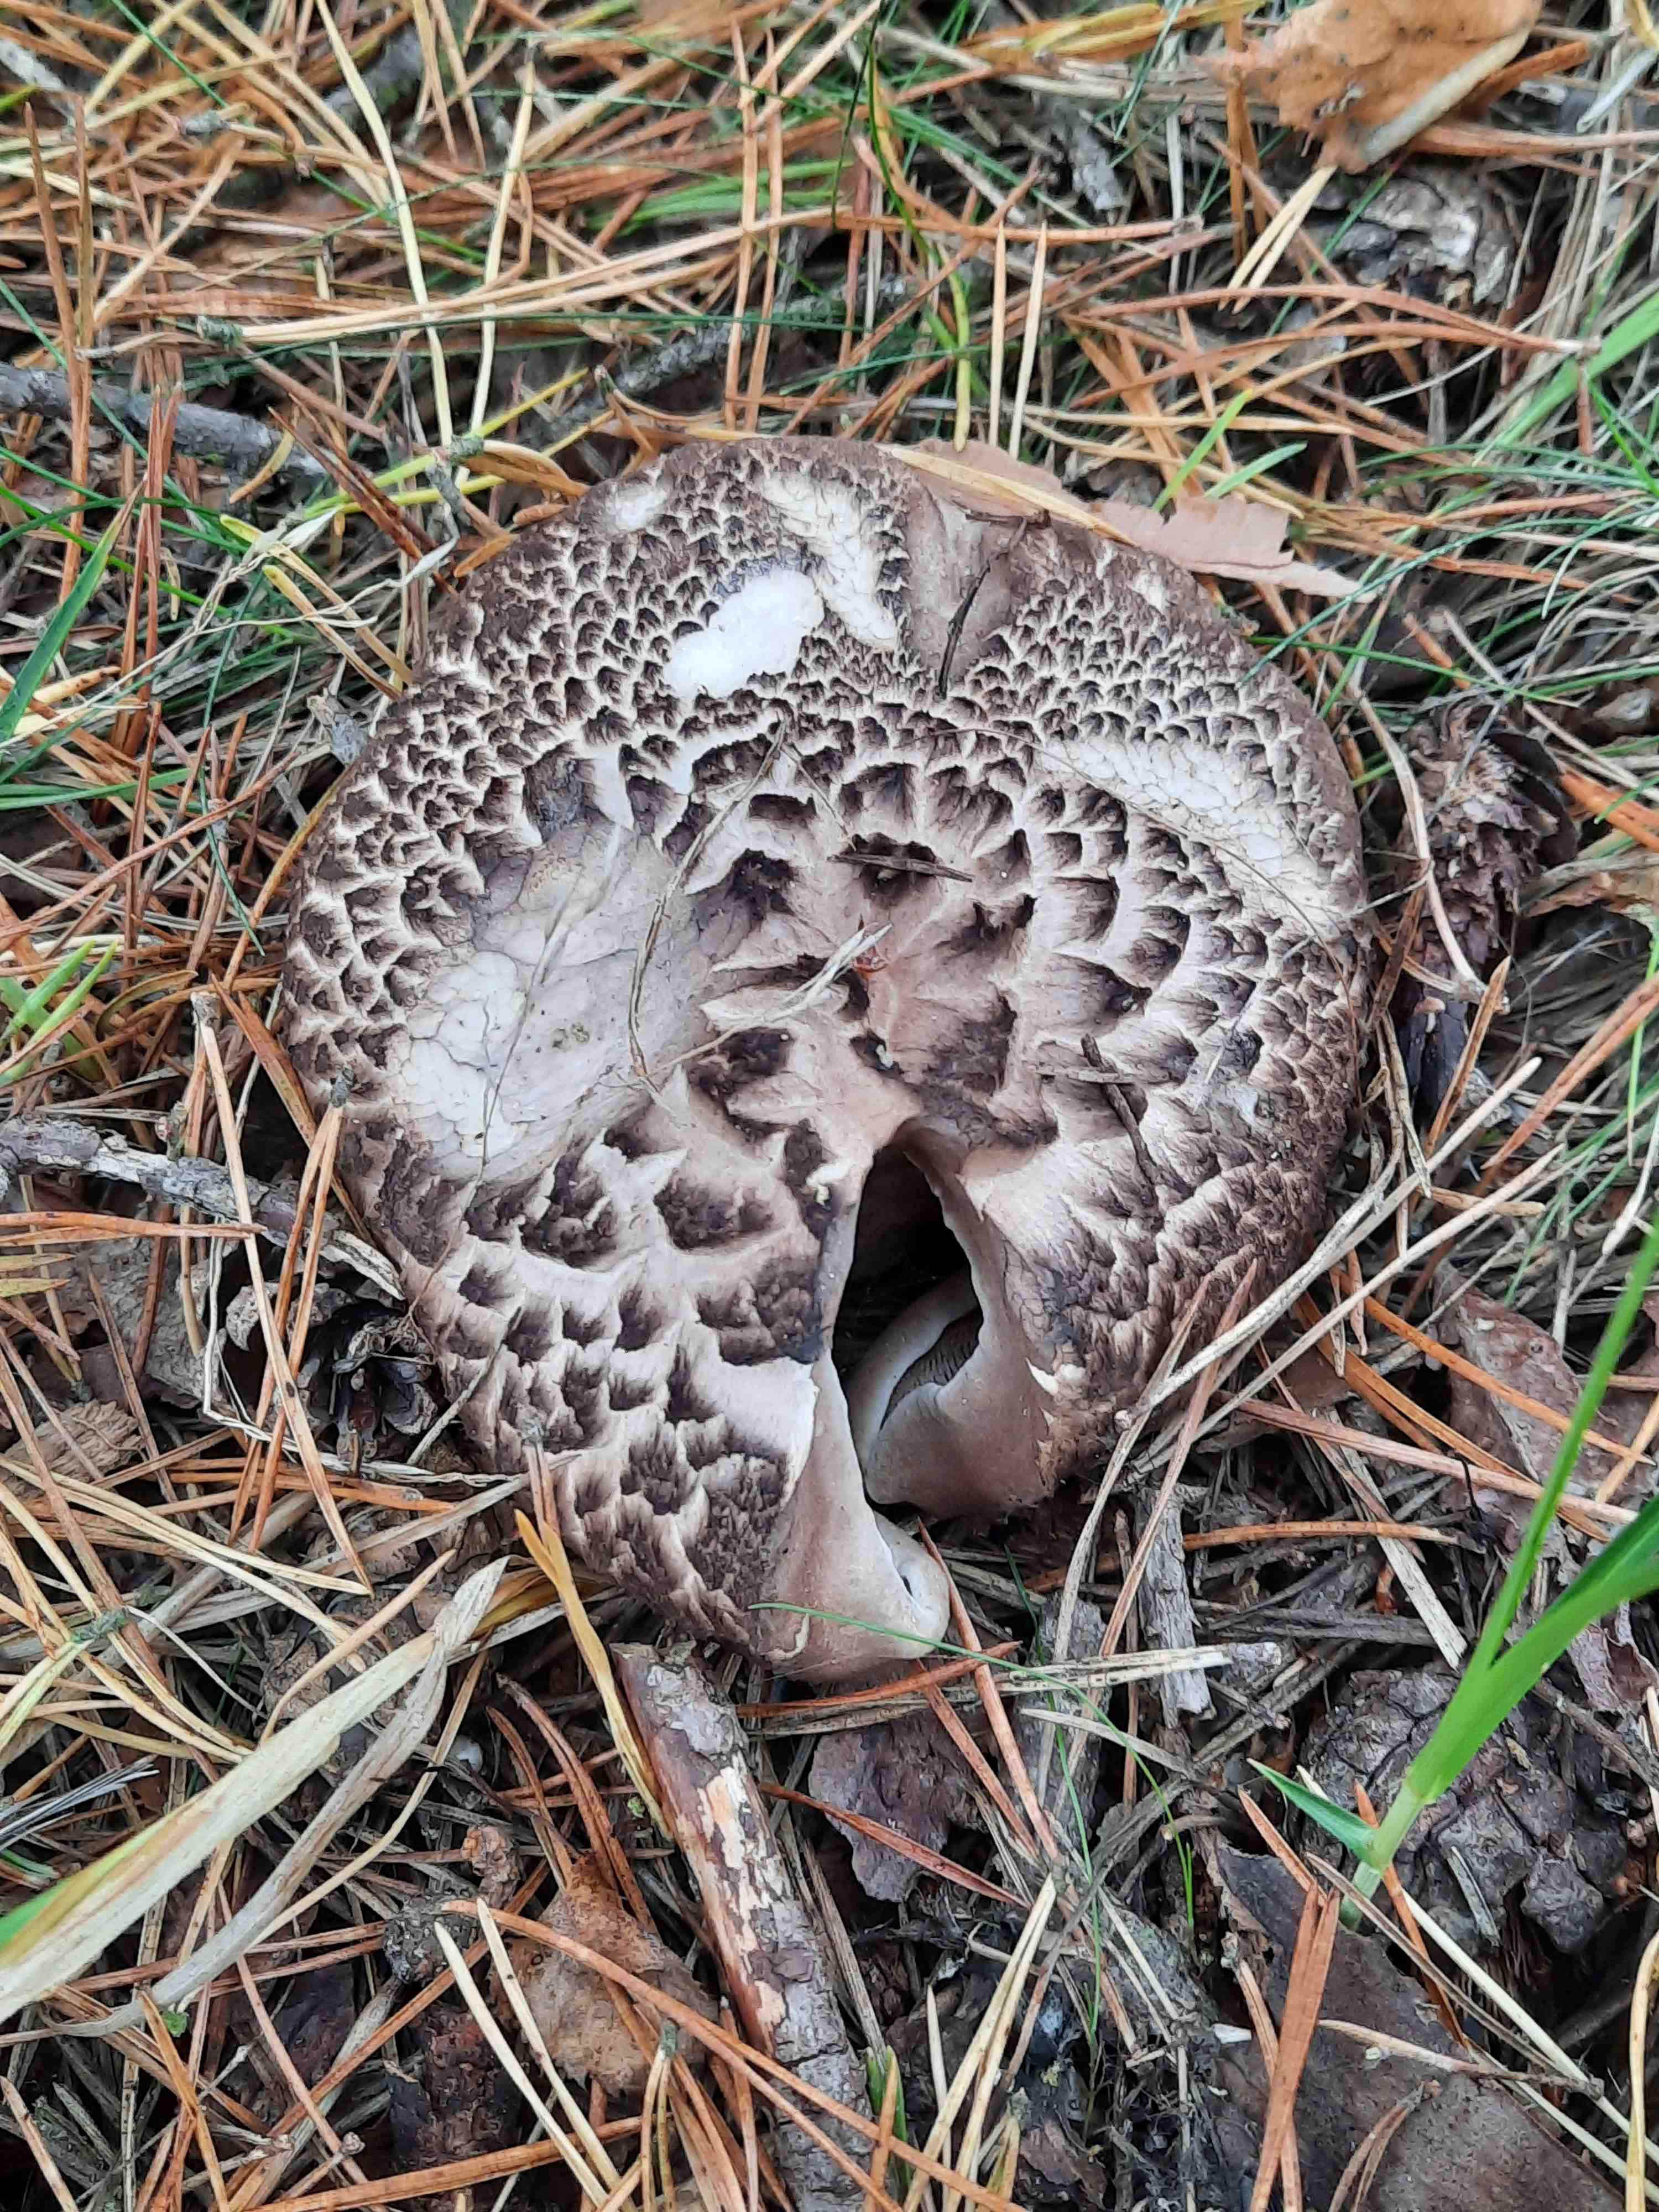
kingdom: Fungi
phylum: Basidiomycota
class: Agaricomycetes
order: Thelephorales
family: Bankeraceae
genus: Sarcodon
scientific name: Sarcodon squamosus
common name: småskællet kødpigsvamp
